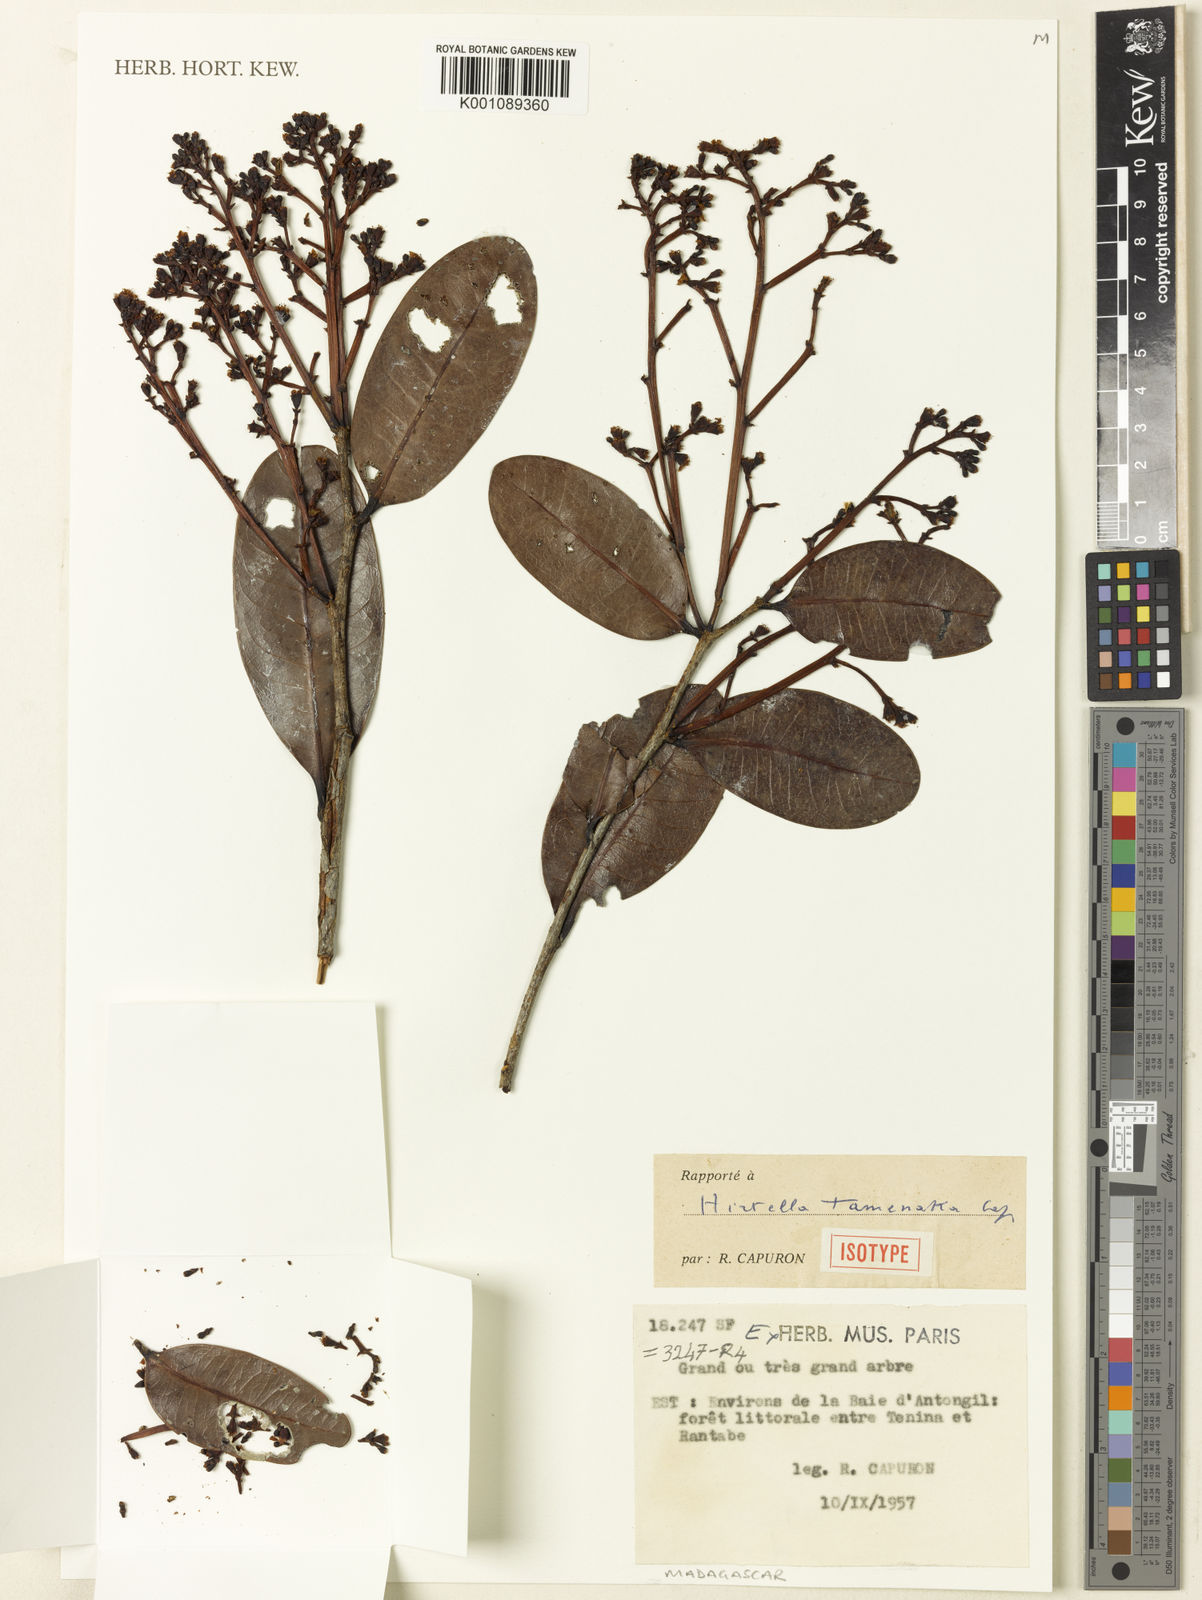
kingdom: Plantae
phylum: Tracheophyta
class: Magnoliopsida
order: Malpighiales
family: Chrysobalanaceae
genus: Magnistipula
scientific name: Magnistipula tamenaka
